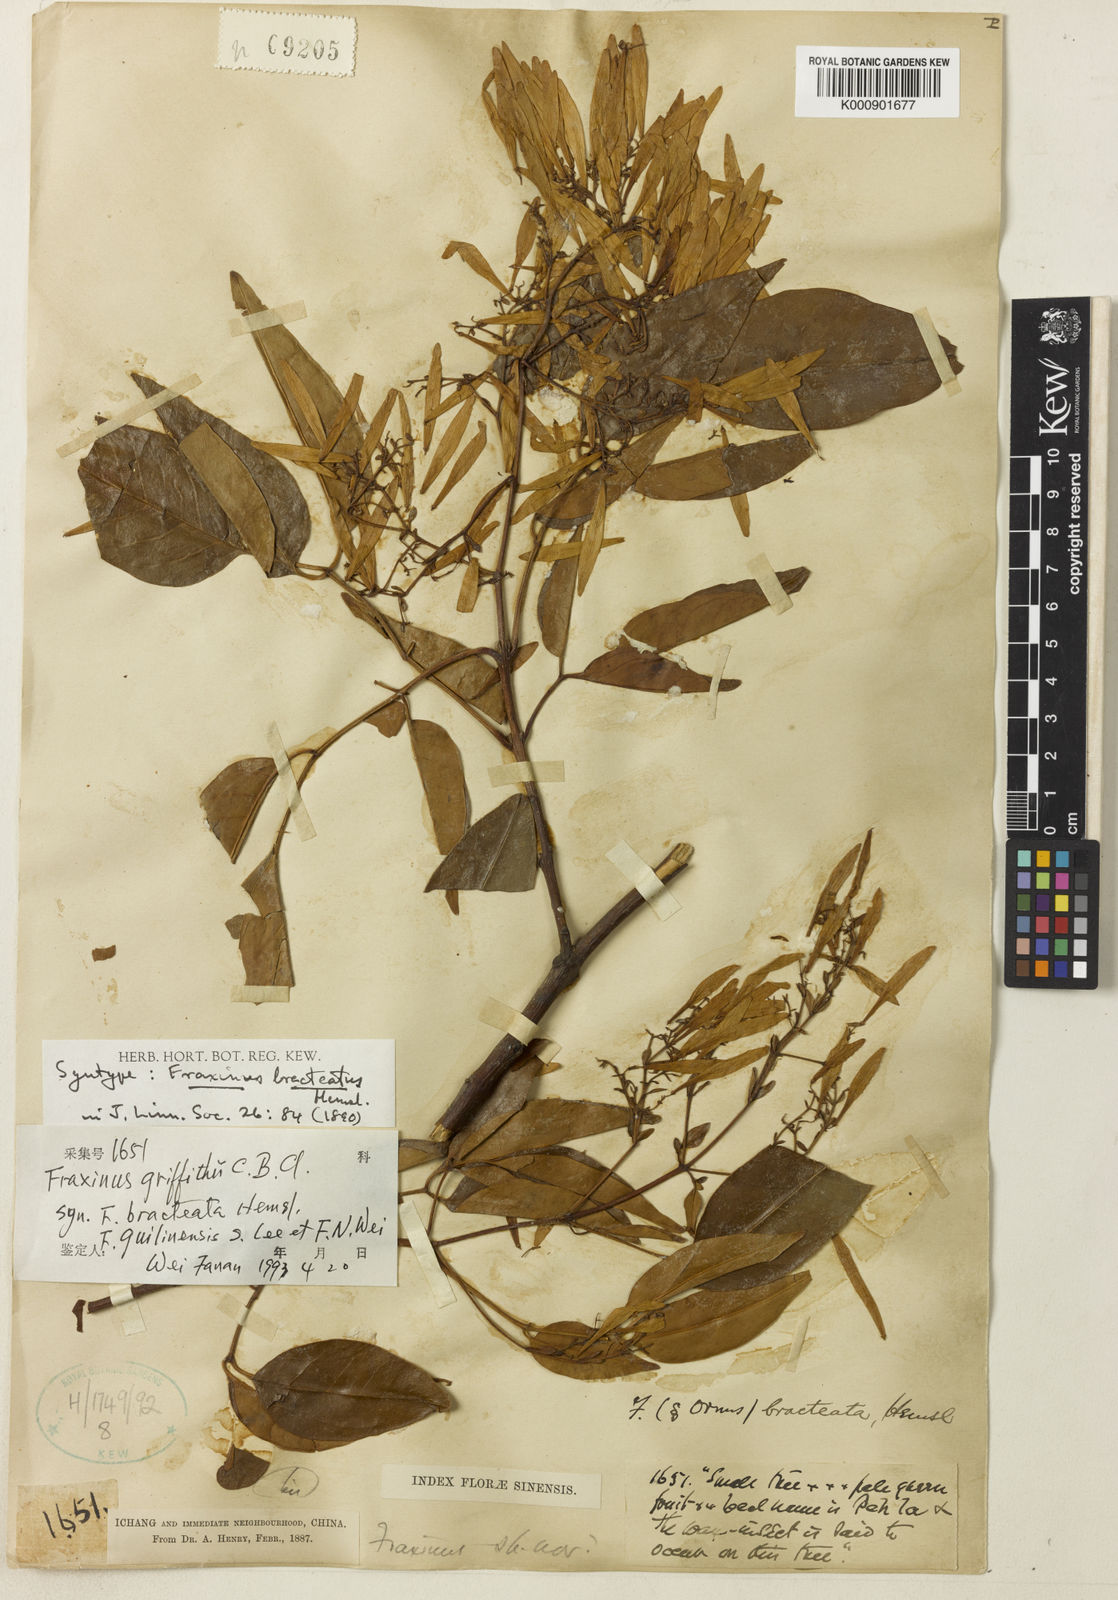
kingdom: Plantae
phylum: Tracheophyta
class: Magnoliopsida
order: Lamiales
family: Oleaceae
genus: Fraxinus
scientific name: Fraxinus griffithii
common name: Himalayan ash
